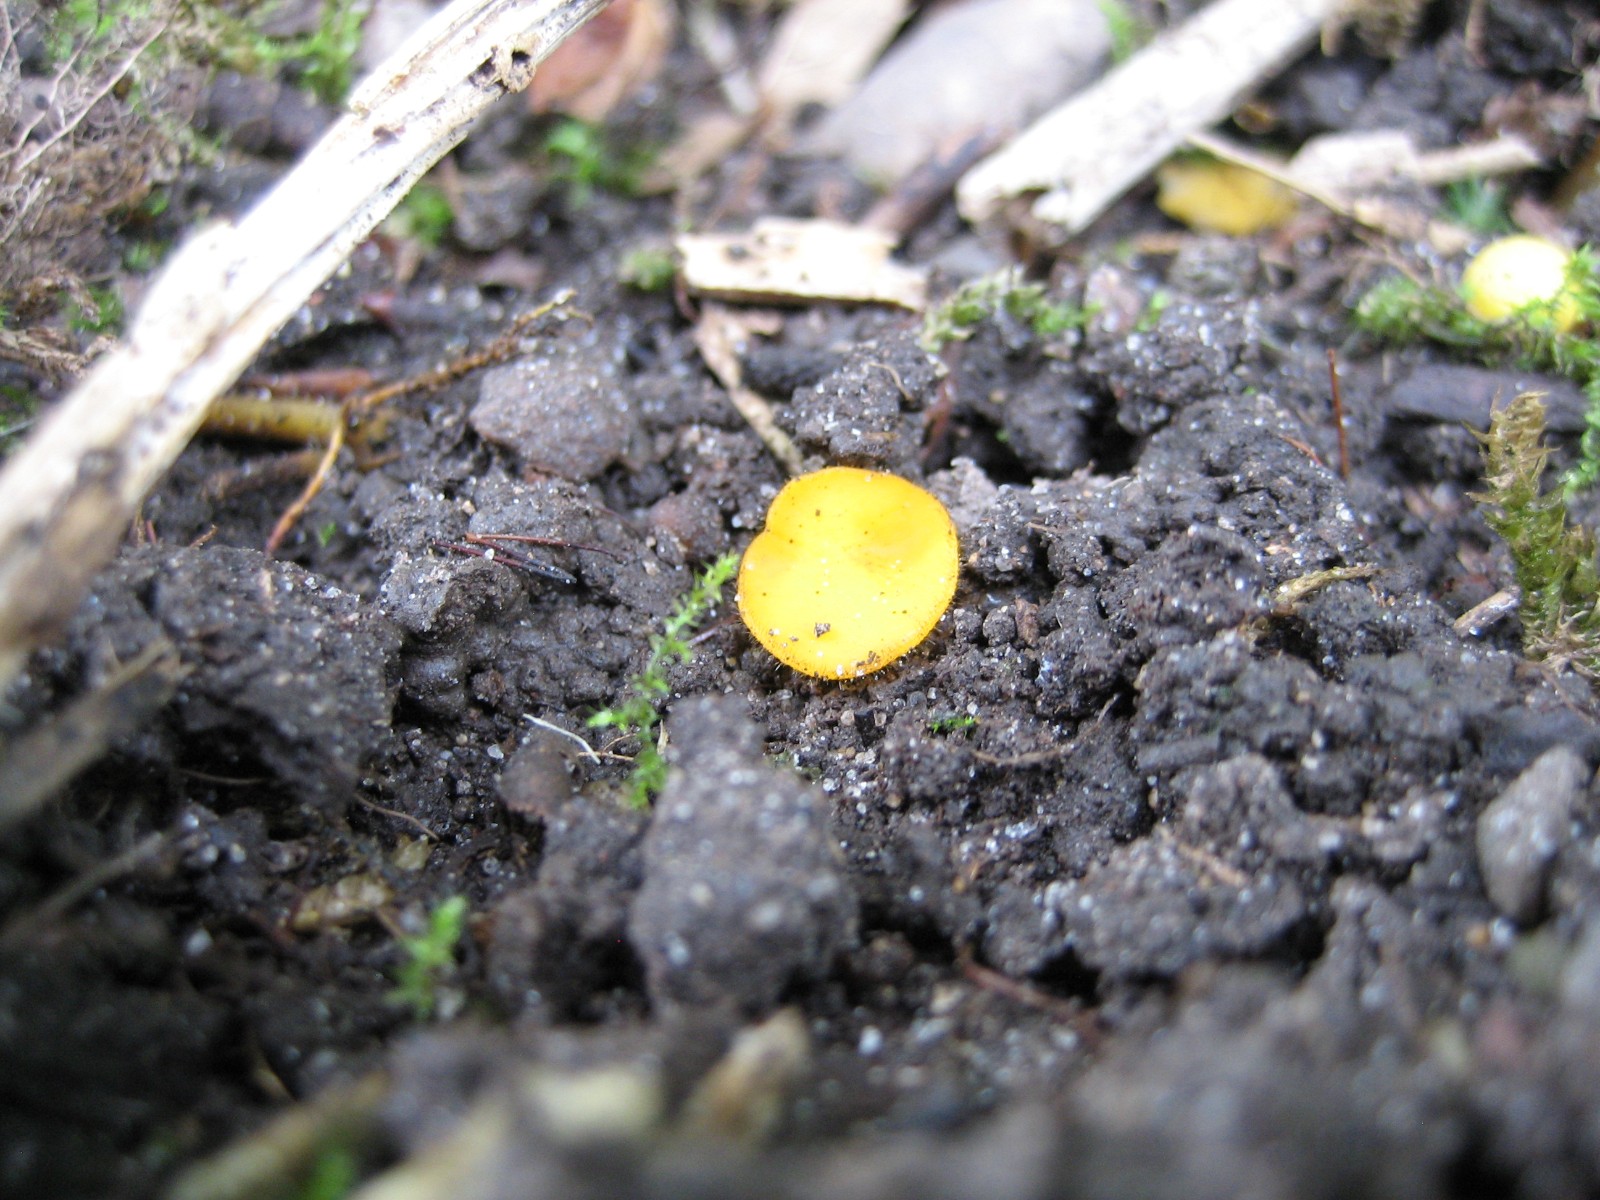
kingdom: Fungi
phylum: Ascomycota
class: Pezizomycetes
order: Pezizales
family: Pyronemataceae
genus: Cheilymenia
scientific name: Cheilymenia vitellina
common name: æggegul hårbæger
